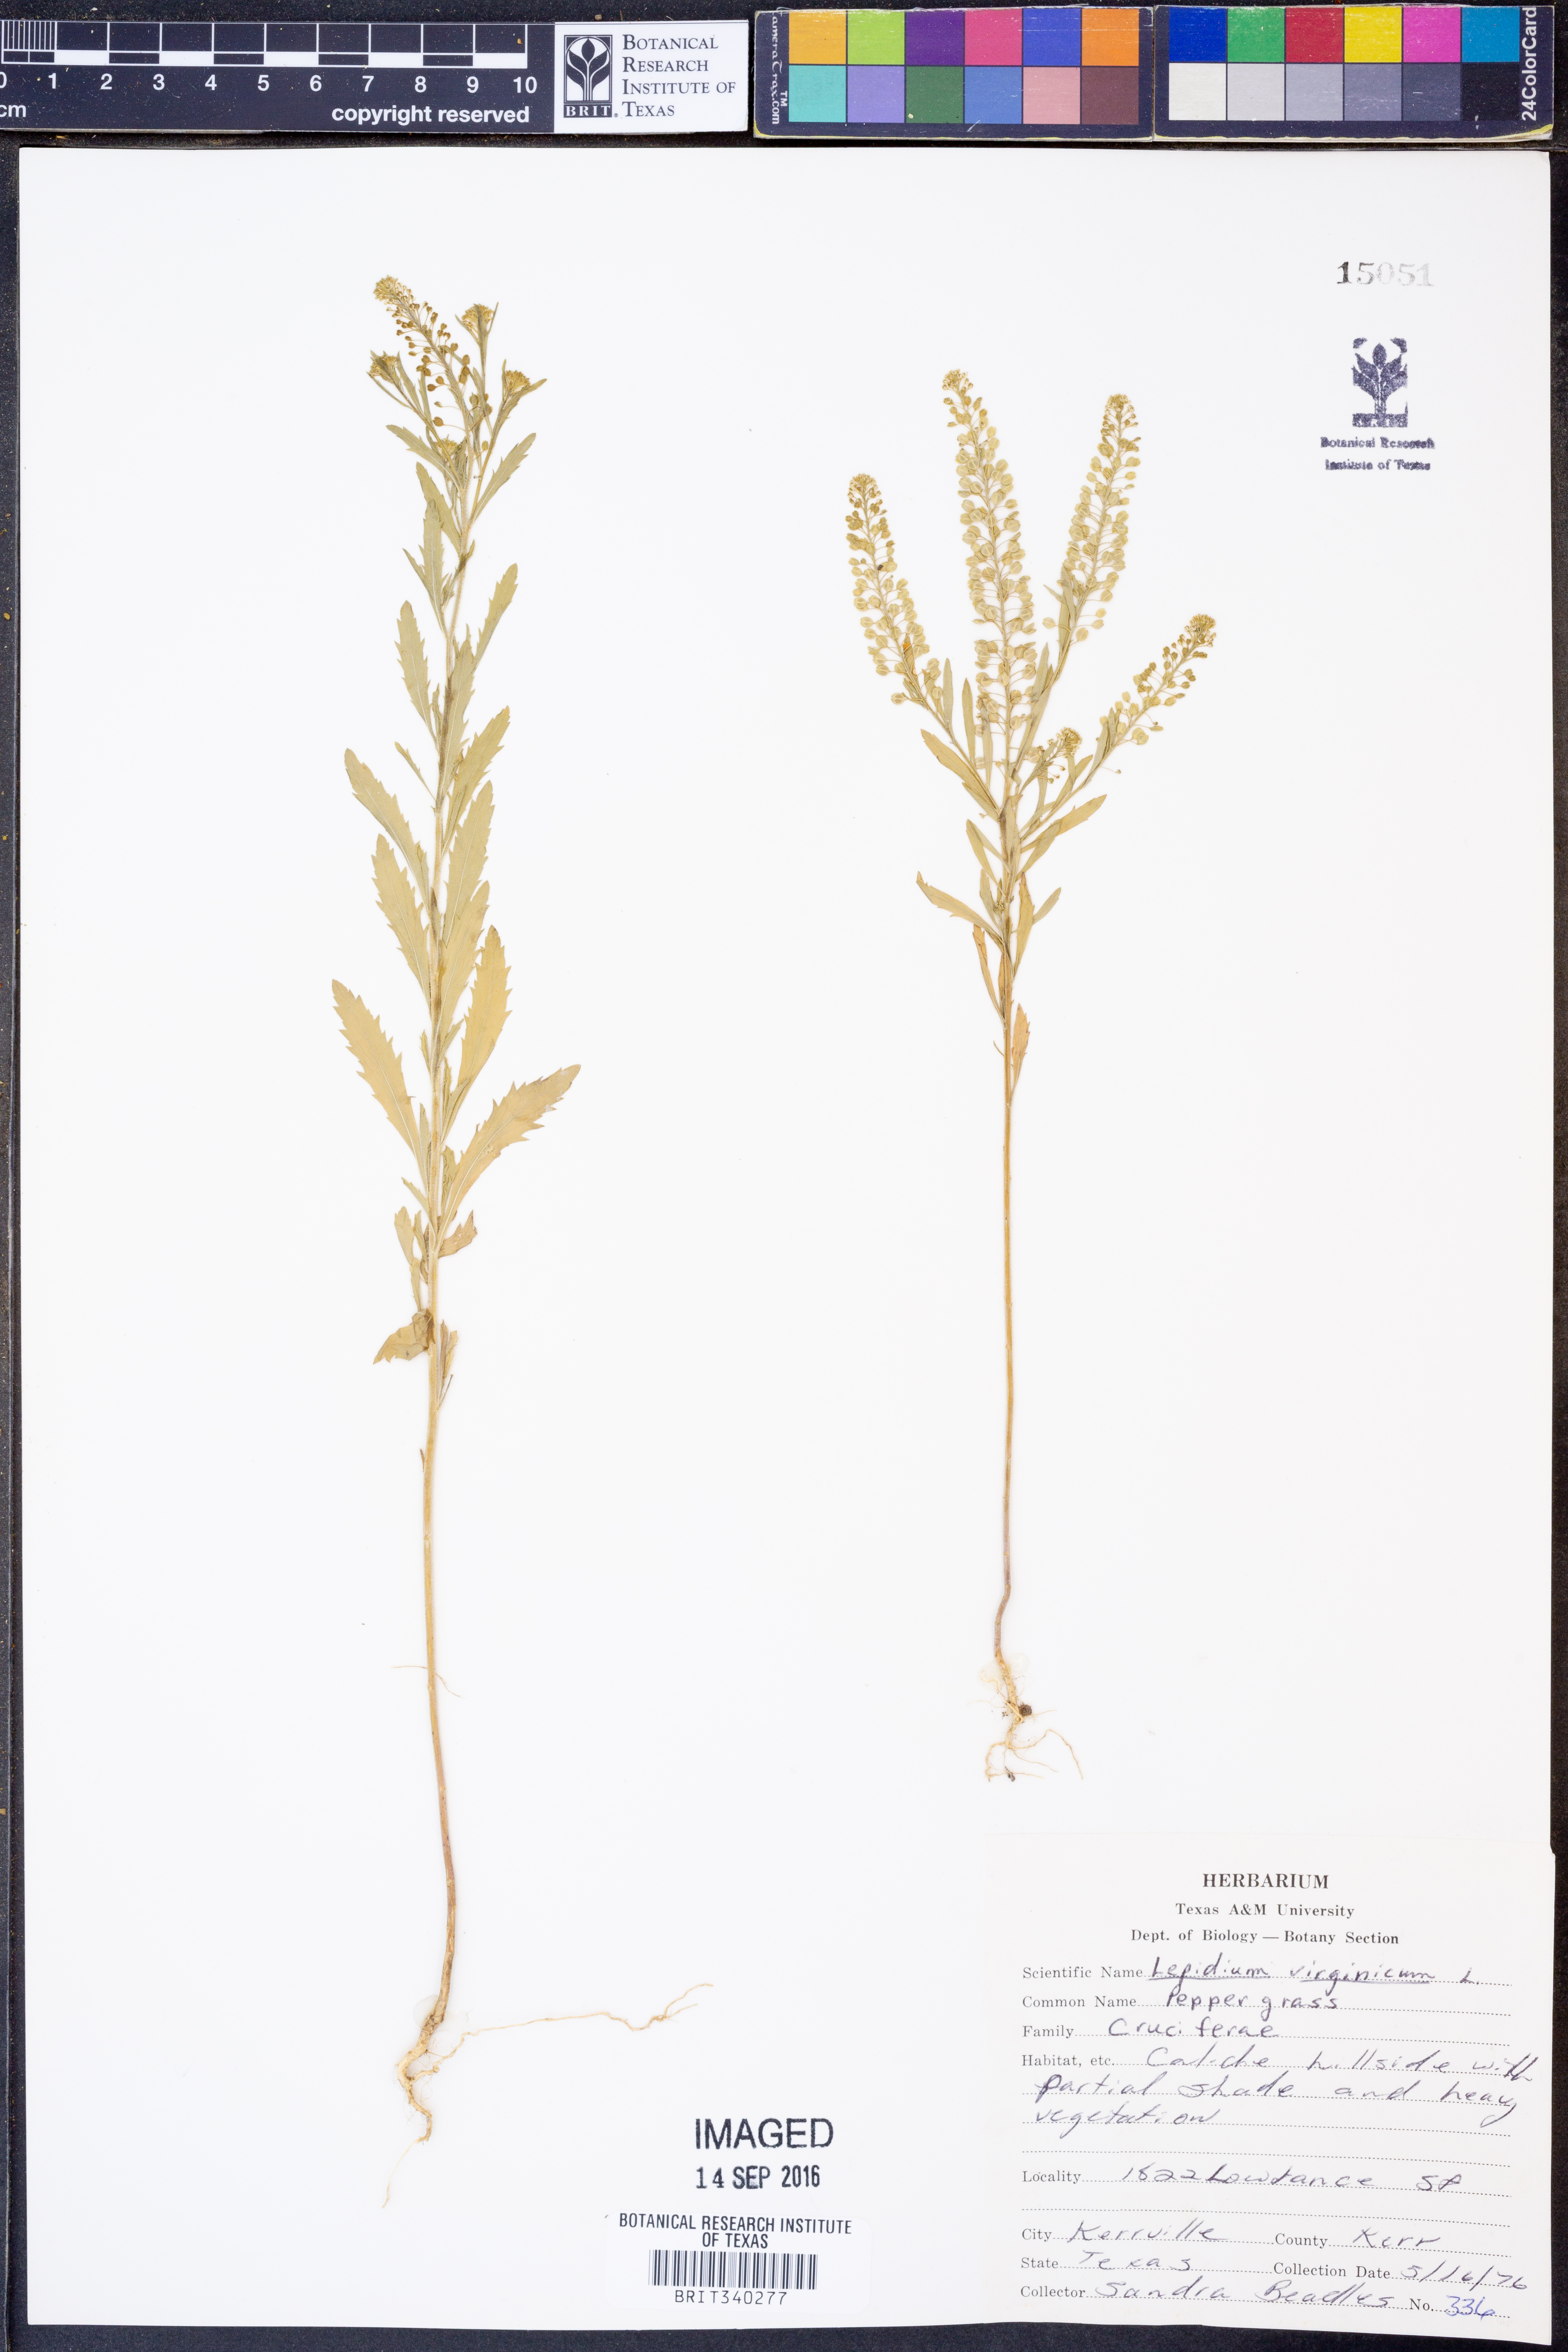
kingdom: Plantae
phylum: Tracheophyta
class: Magnoliopsida
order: Brassicales
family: Brassicaceae
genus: Lepidium
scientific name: Lepidium virginicum
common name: Least pepperwort
